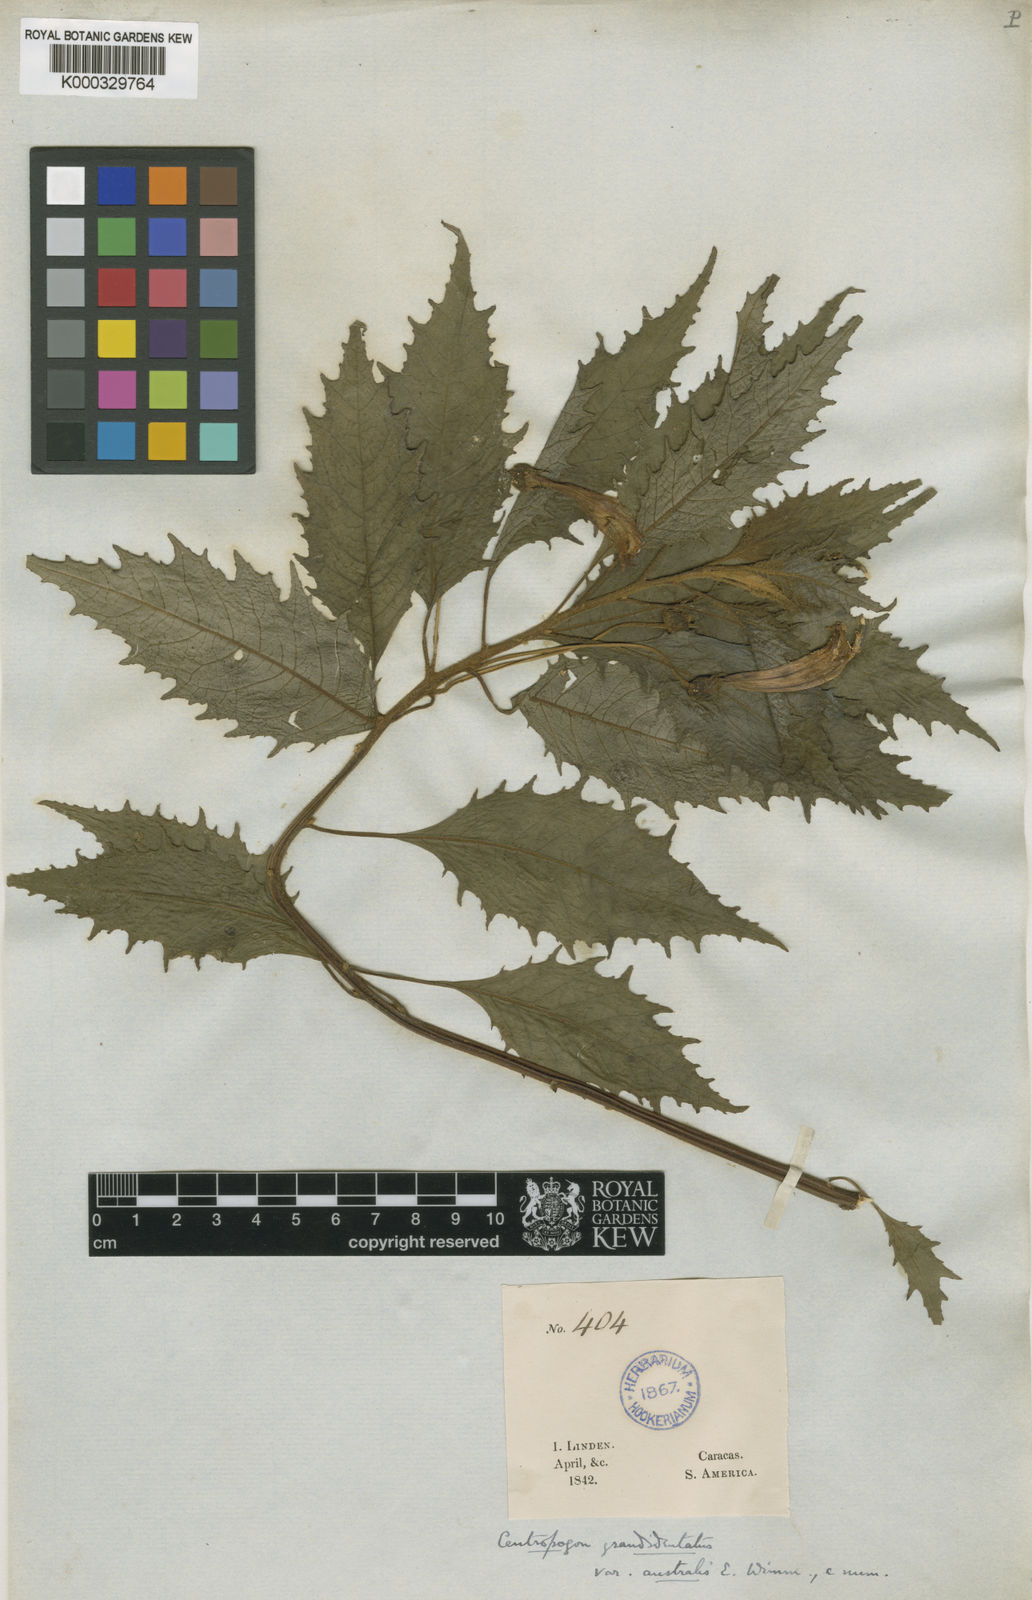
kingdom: Plantae
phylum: Tracheophyta
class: Magnoliopsida
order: Asterales
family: Campanulaceae
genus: Centropogon
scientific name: Centropogon australis
